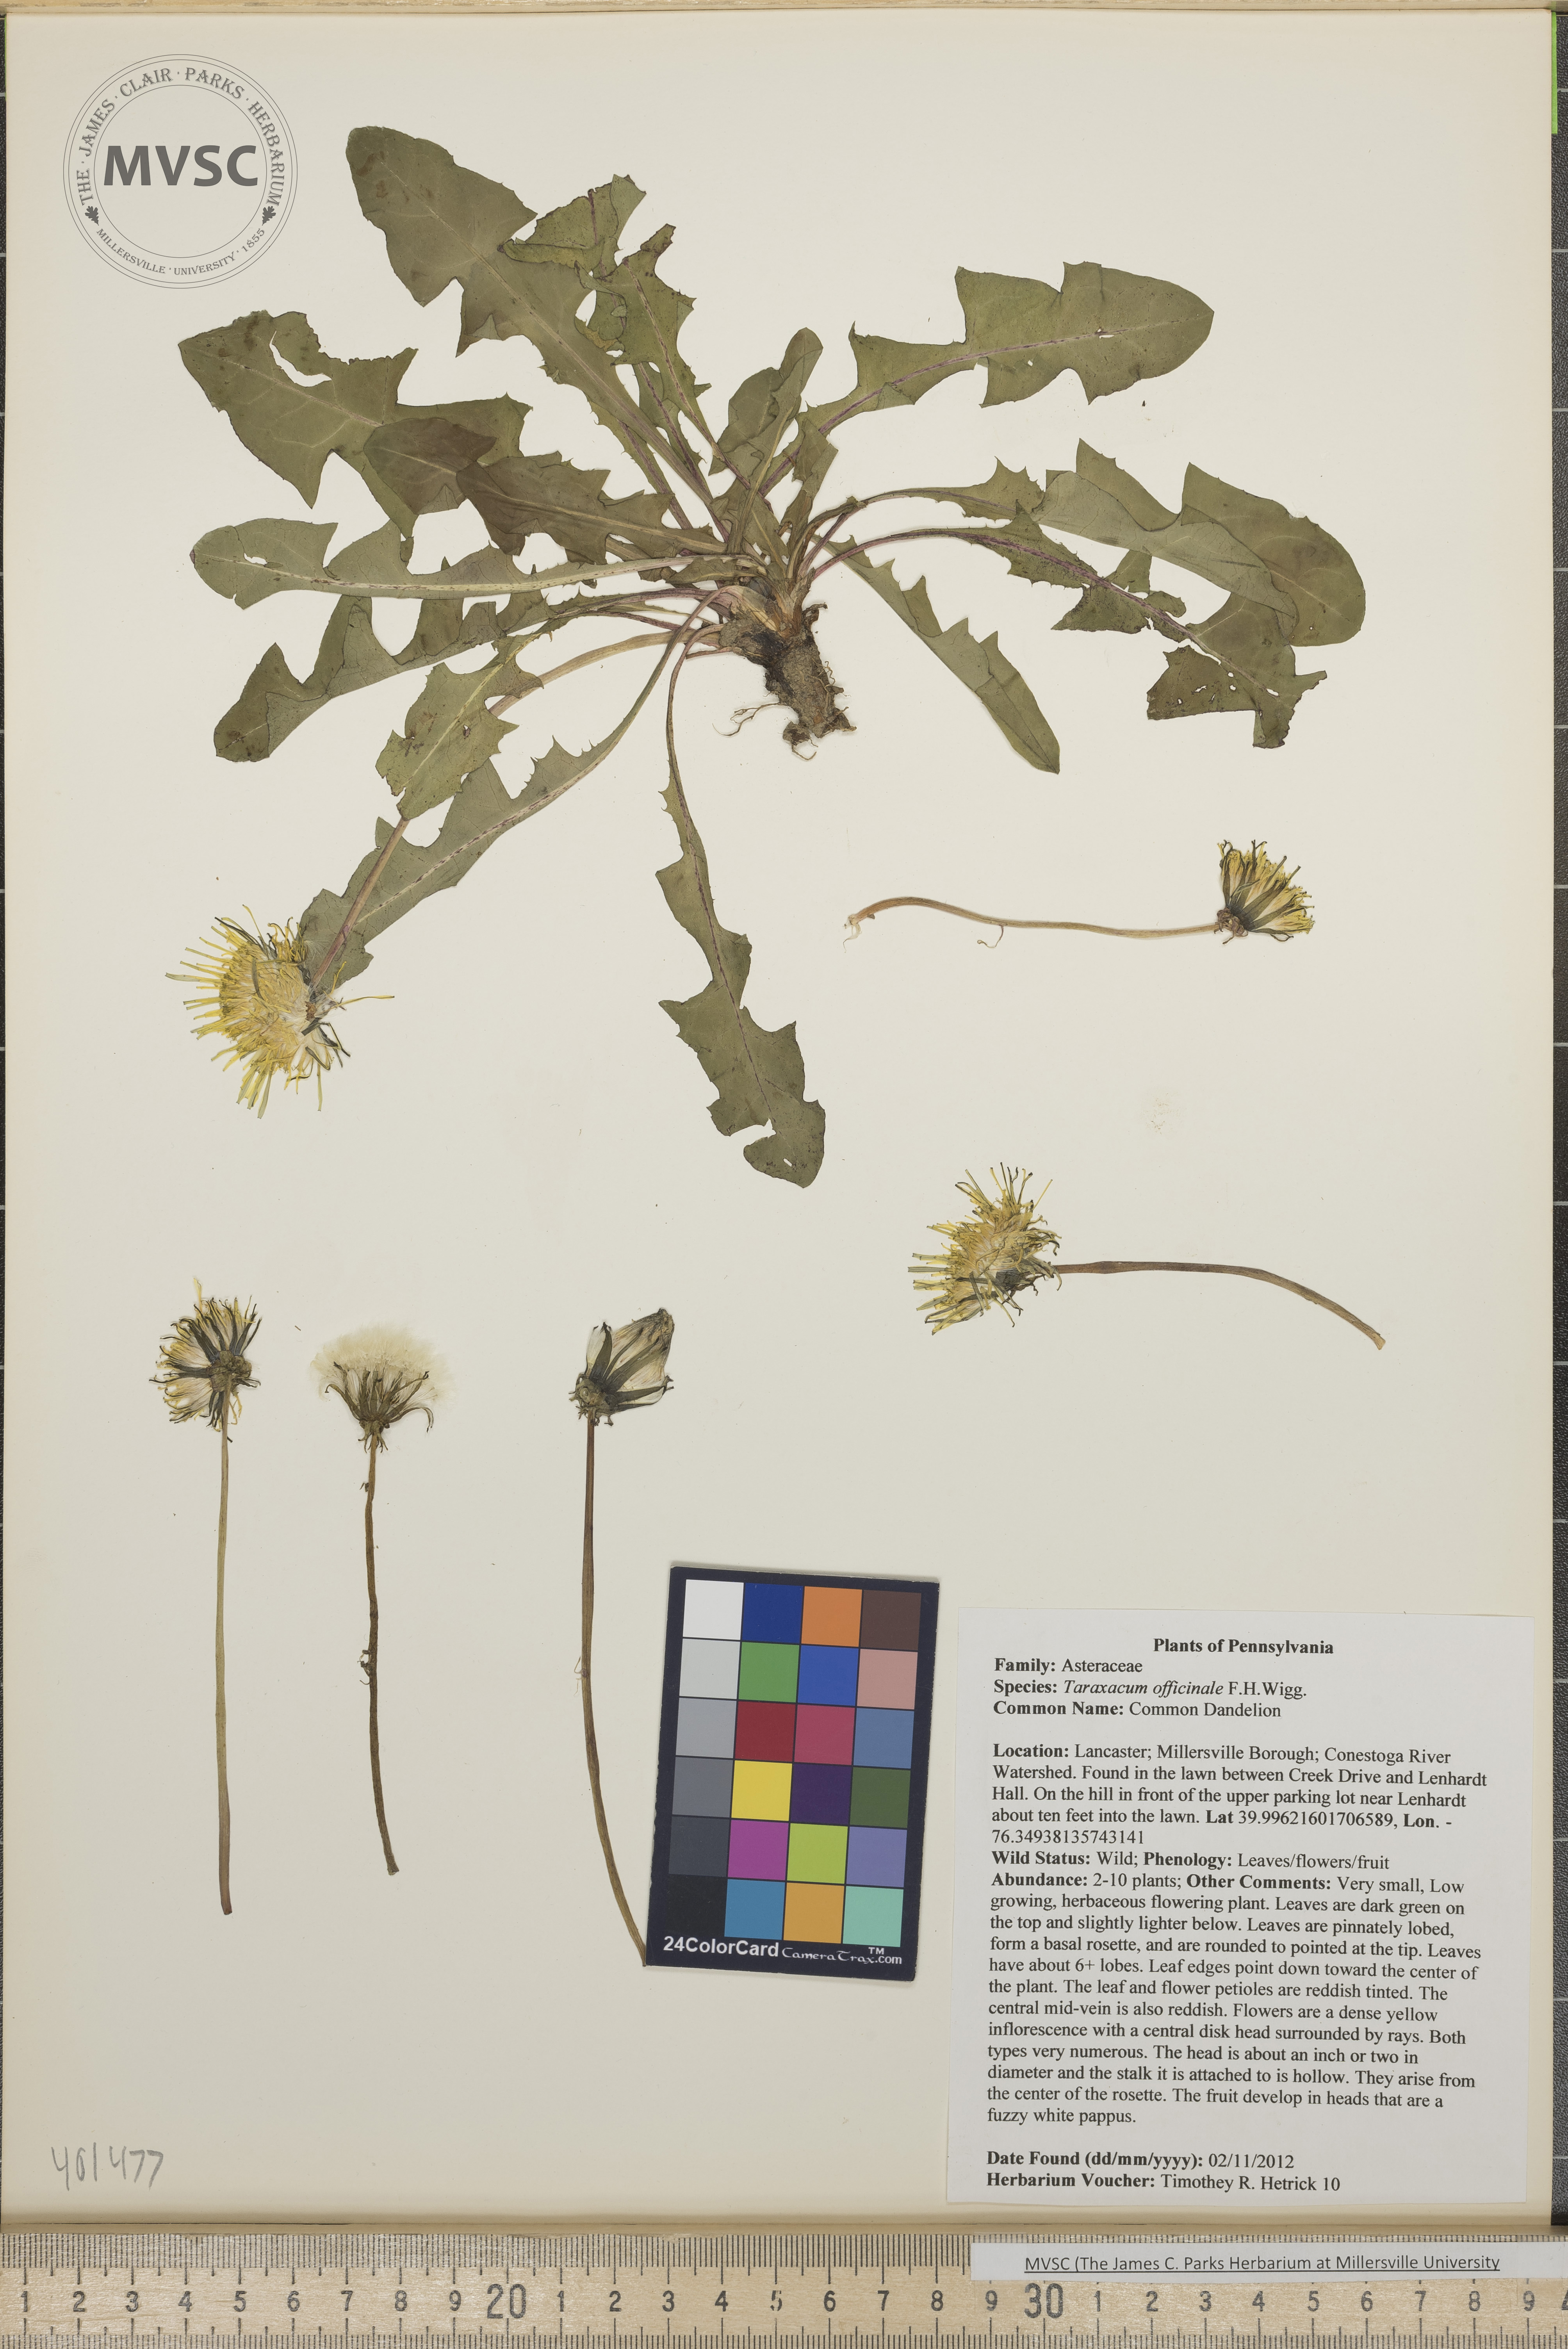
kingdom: Plantae
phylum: Tracheophyta
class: Magnoliopsida
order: Asterales
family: Asteraceae
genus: Taraxacum
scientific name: Taraxacum officinale
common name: Common Dandelion
